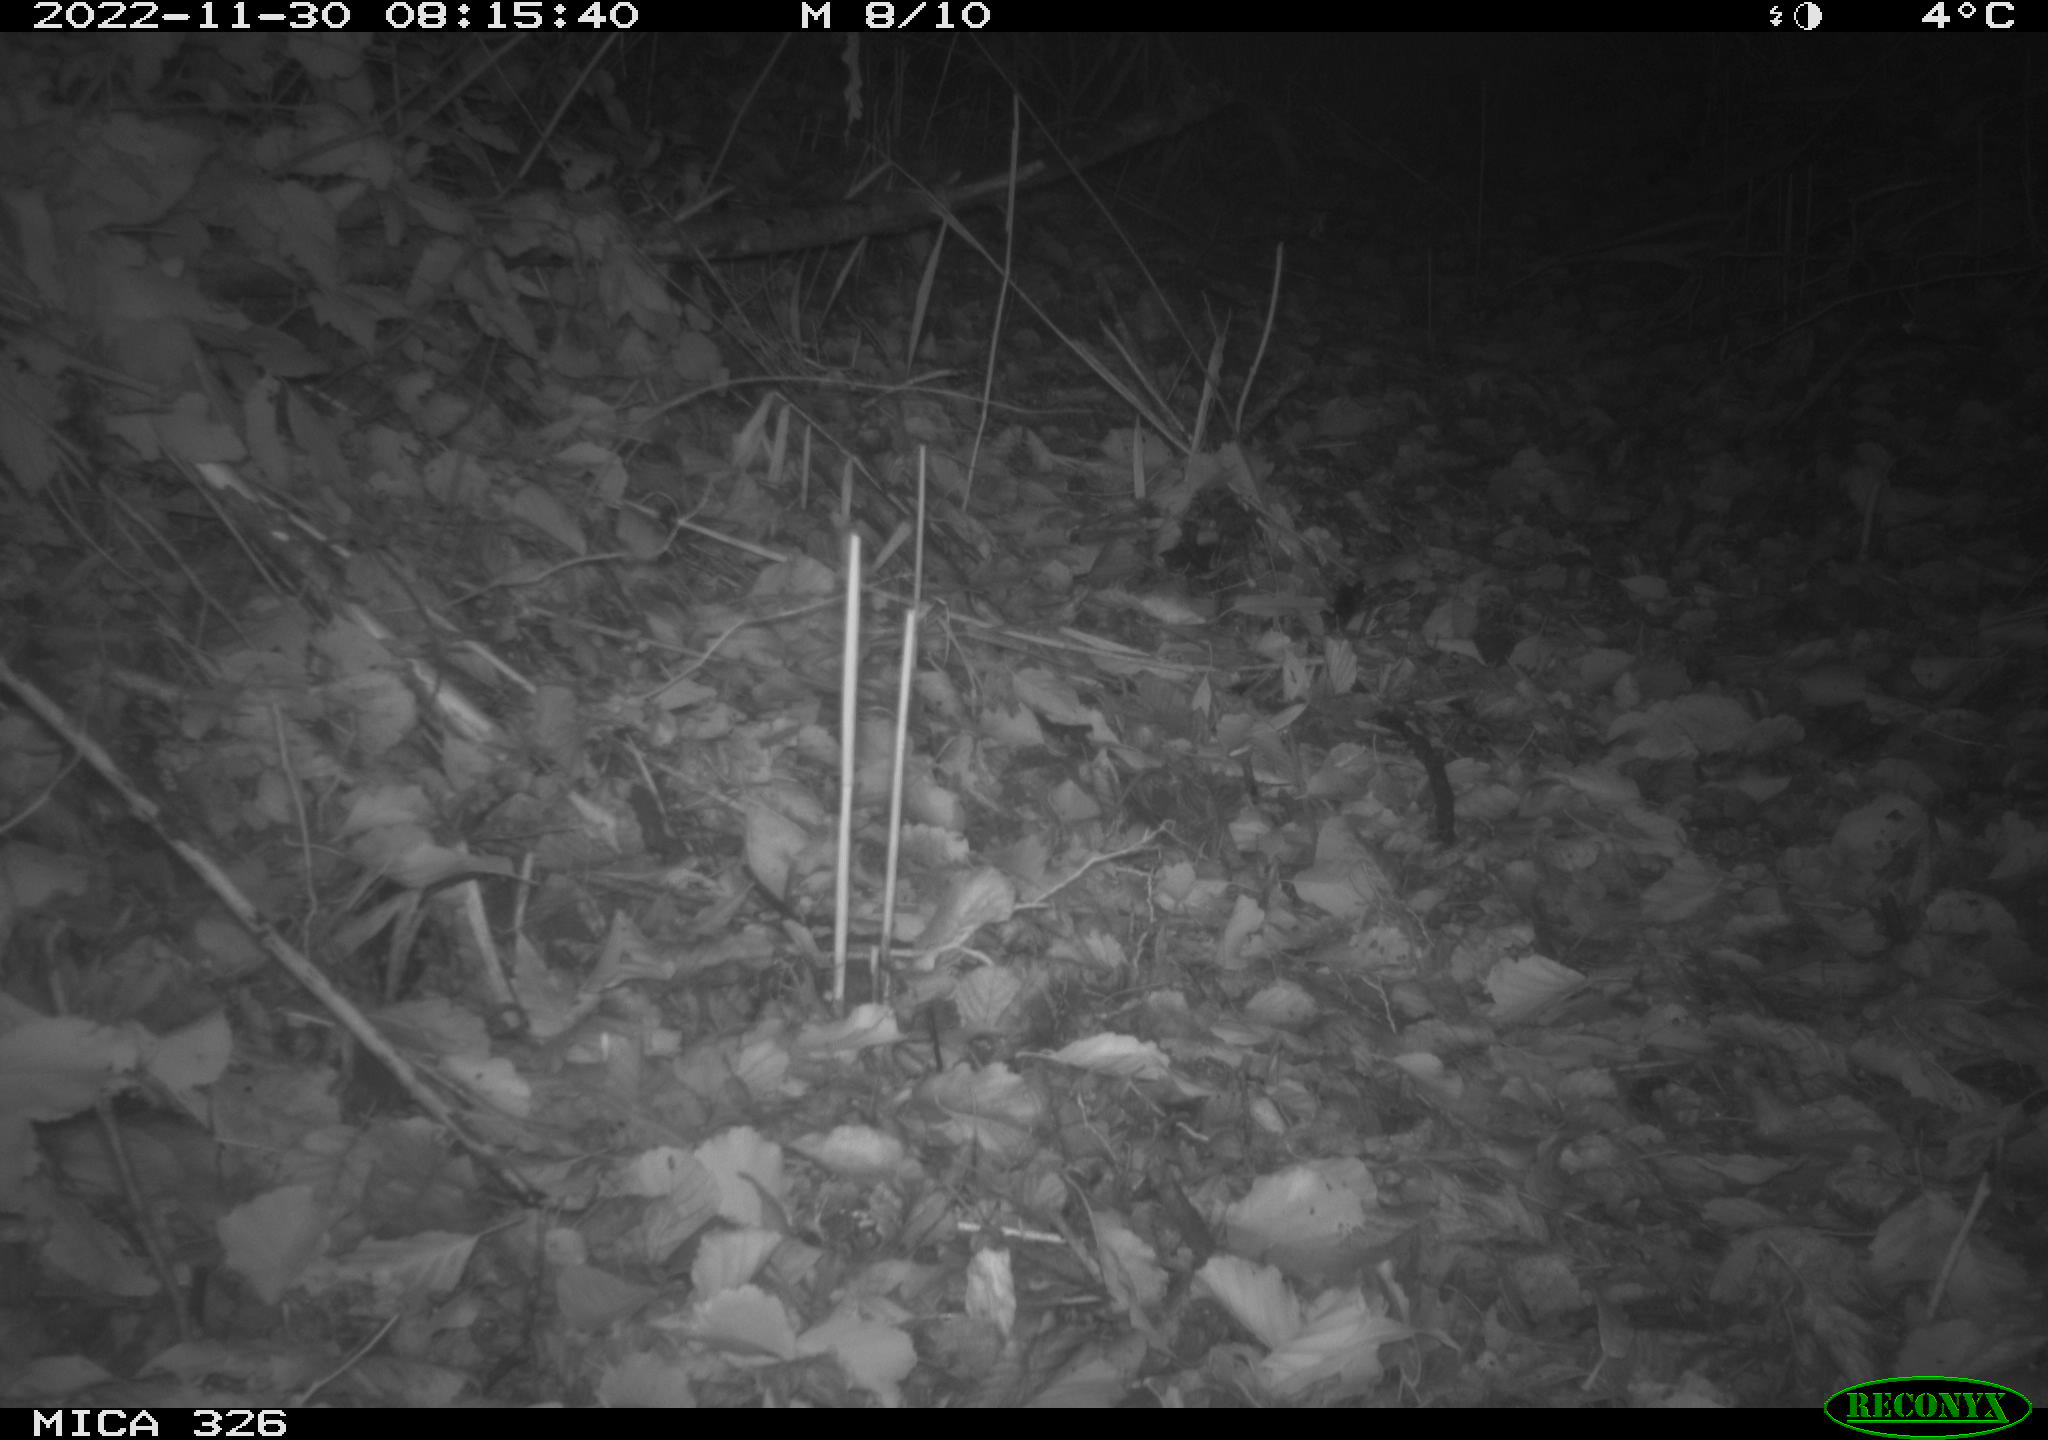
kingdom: Animalia
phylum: Chordata
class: Mammalia
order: Rodentia
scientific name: Rodentia
